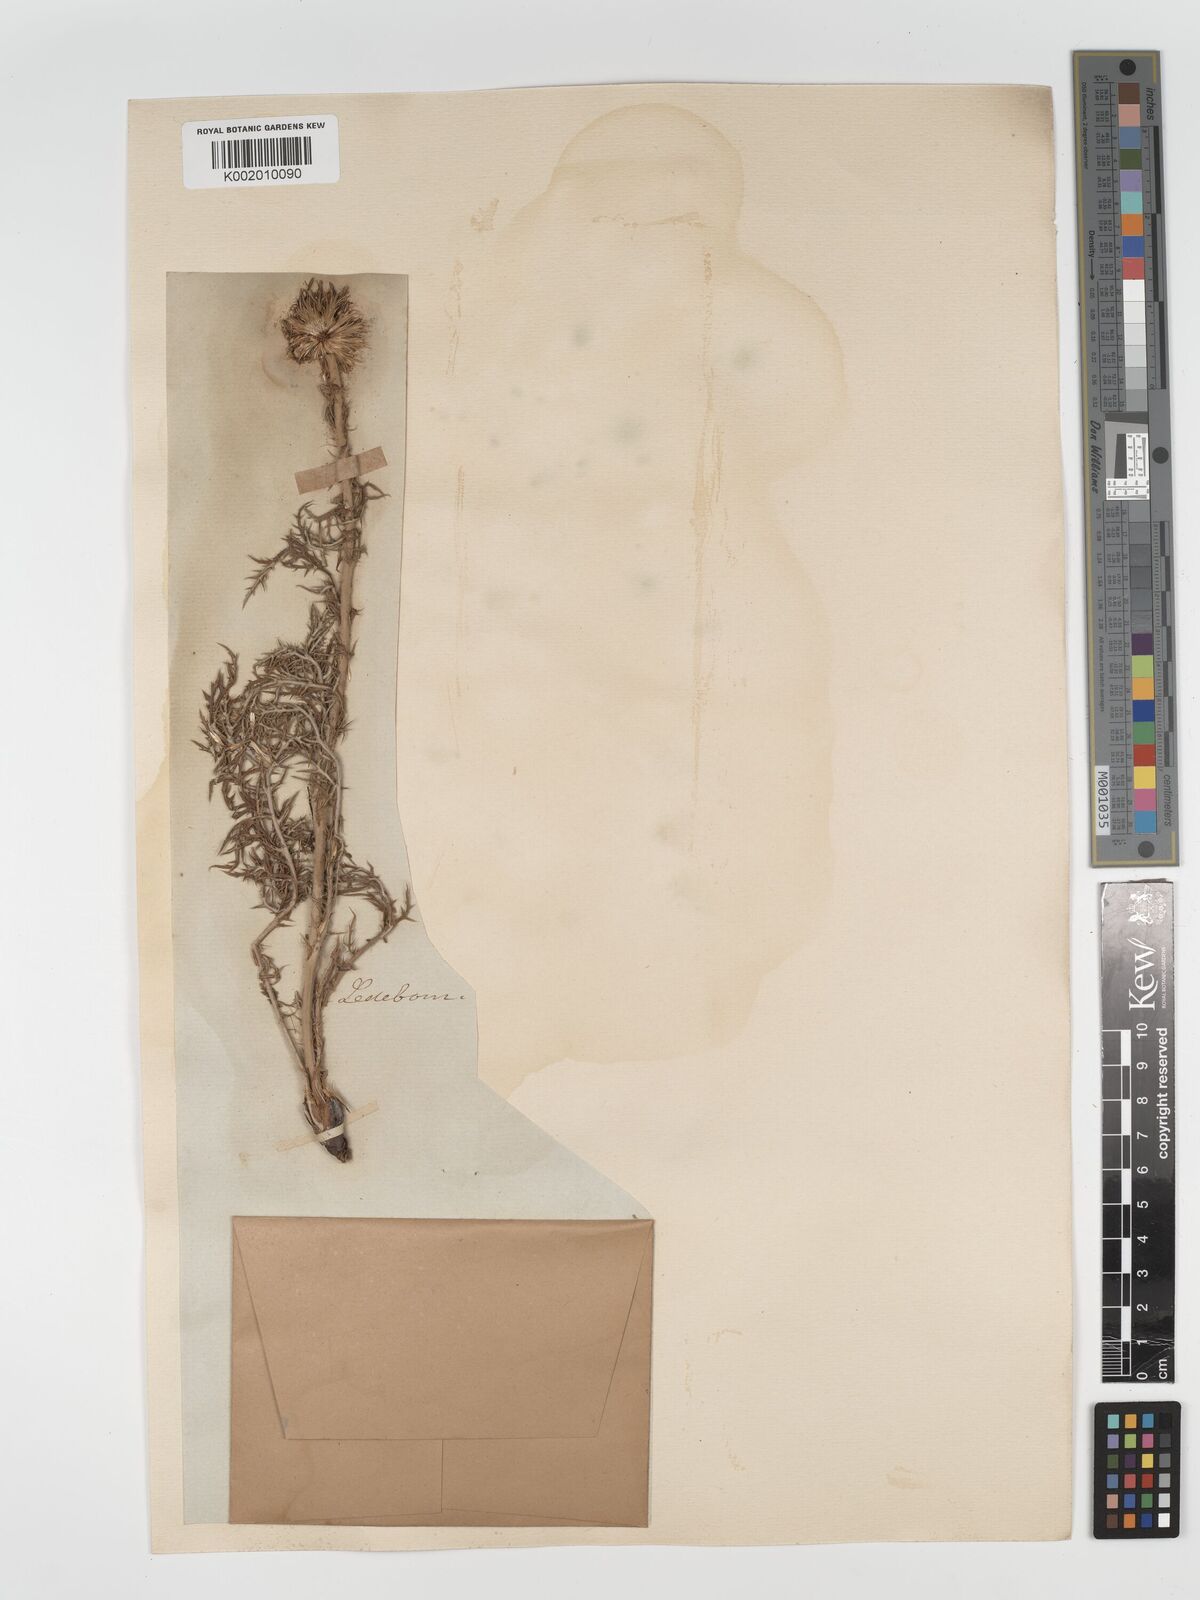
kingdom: Plantae
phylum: Tracheophyta
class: Magnoliopsida
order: Asterales
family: Asteraceae
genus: Echinops
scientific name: Echinops bannaticus
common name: Blue globe-thistle
